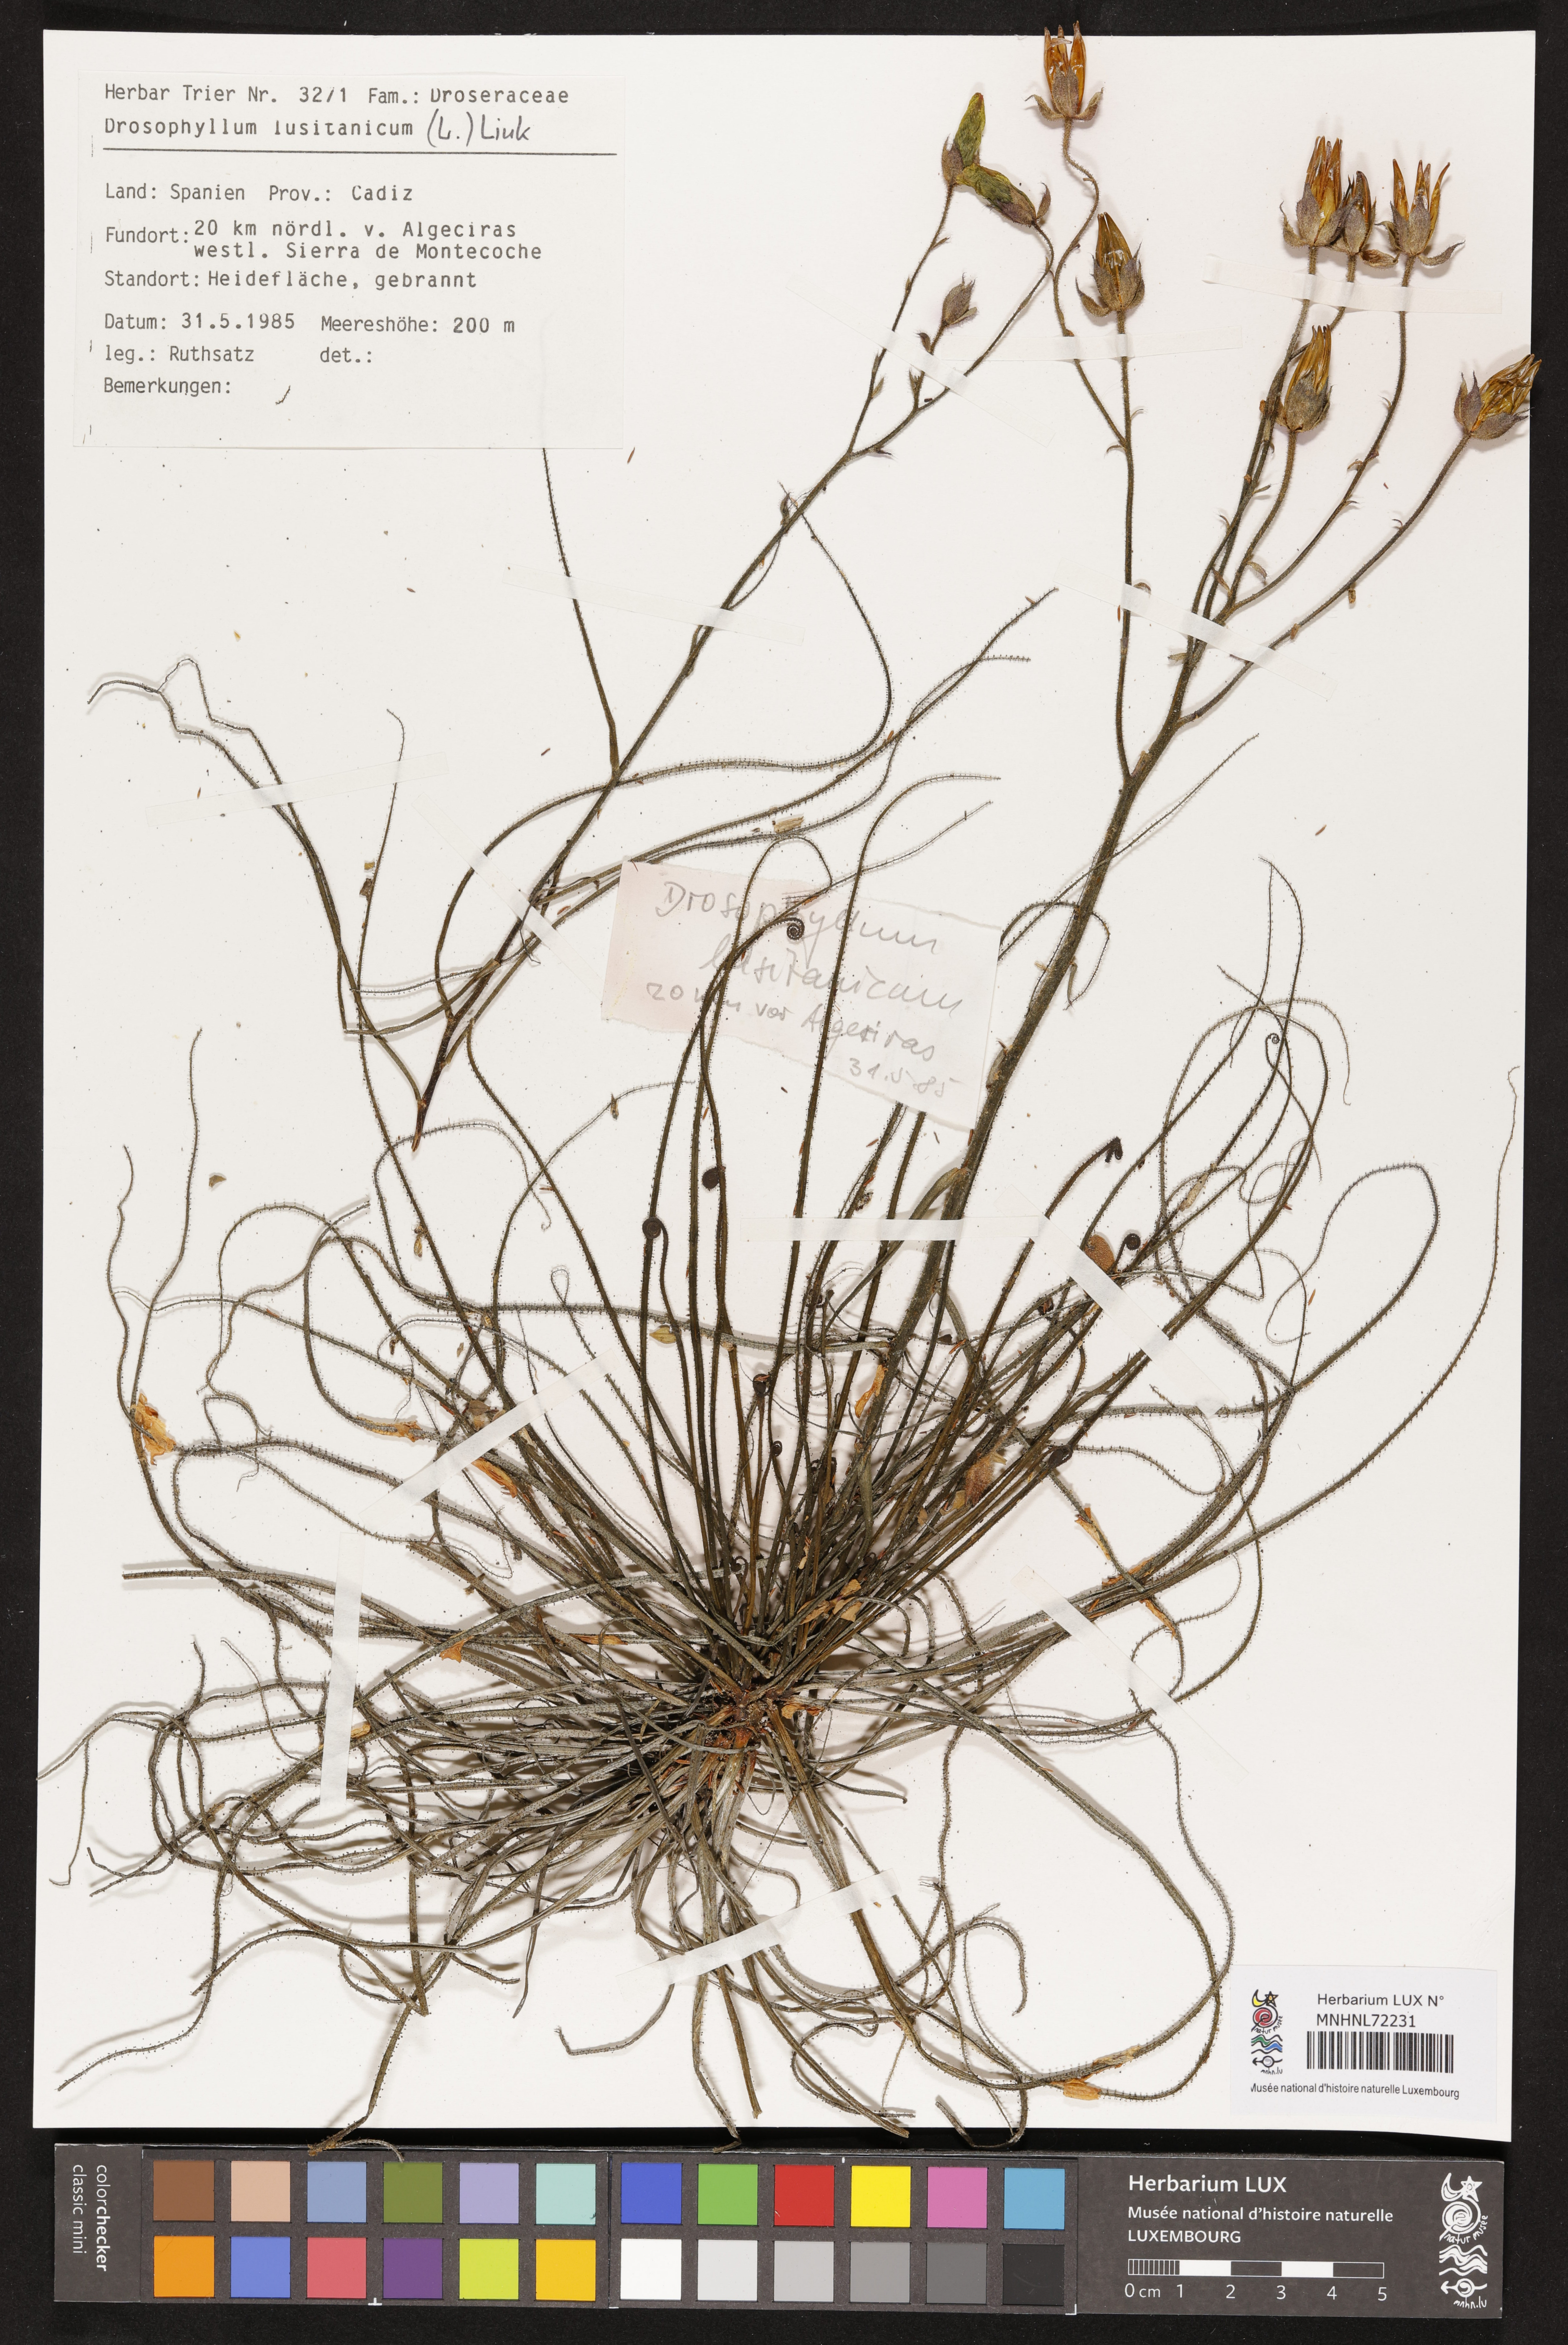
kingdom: Plantae
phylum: Tracheophyta
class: Magnoliopsida
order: Caryophyllales
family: Drosophyllaceae
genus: Drosophyllum
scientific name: Drosophyllum lusitanicum
